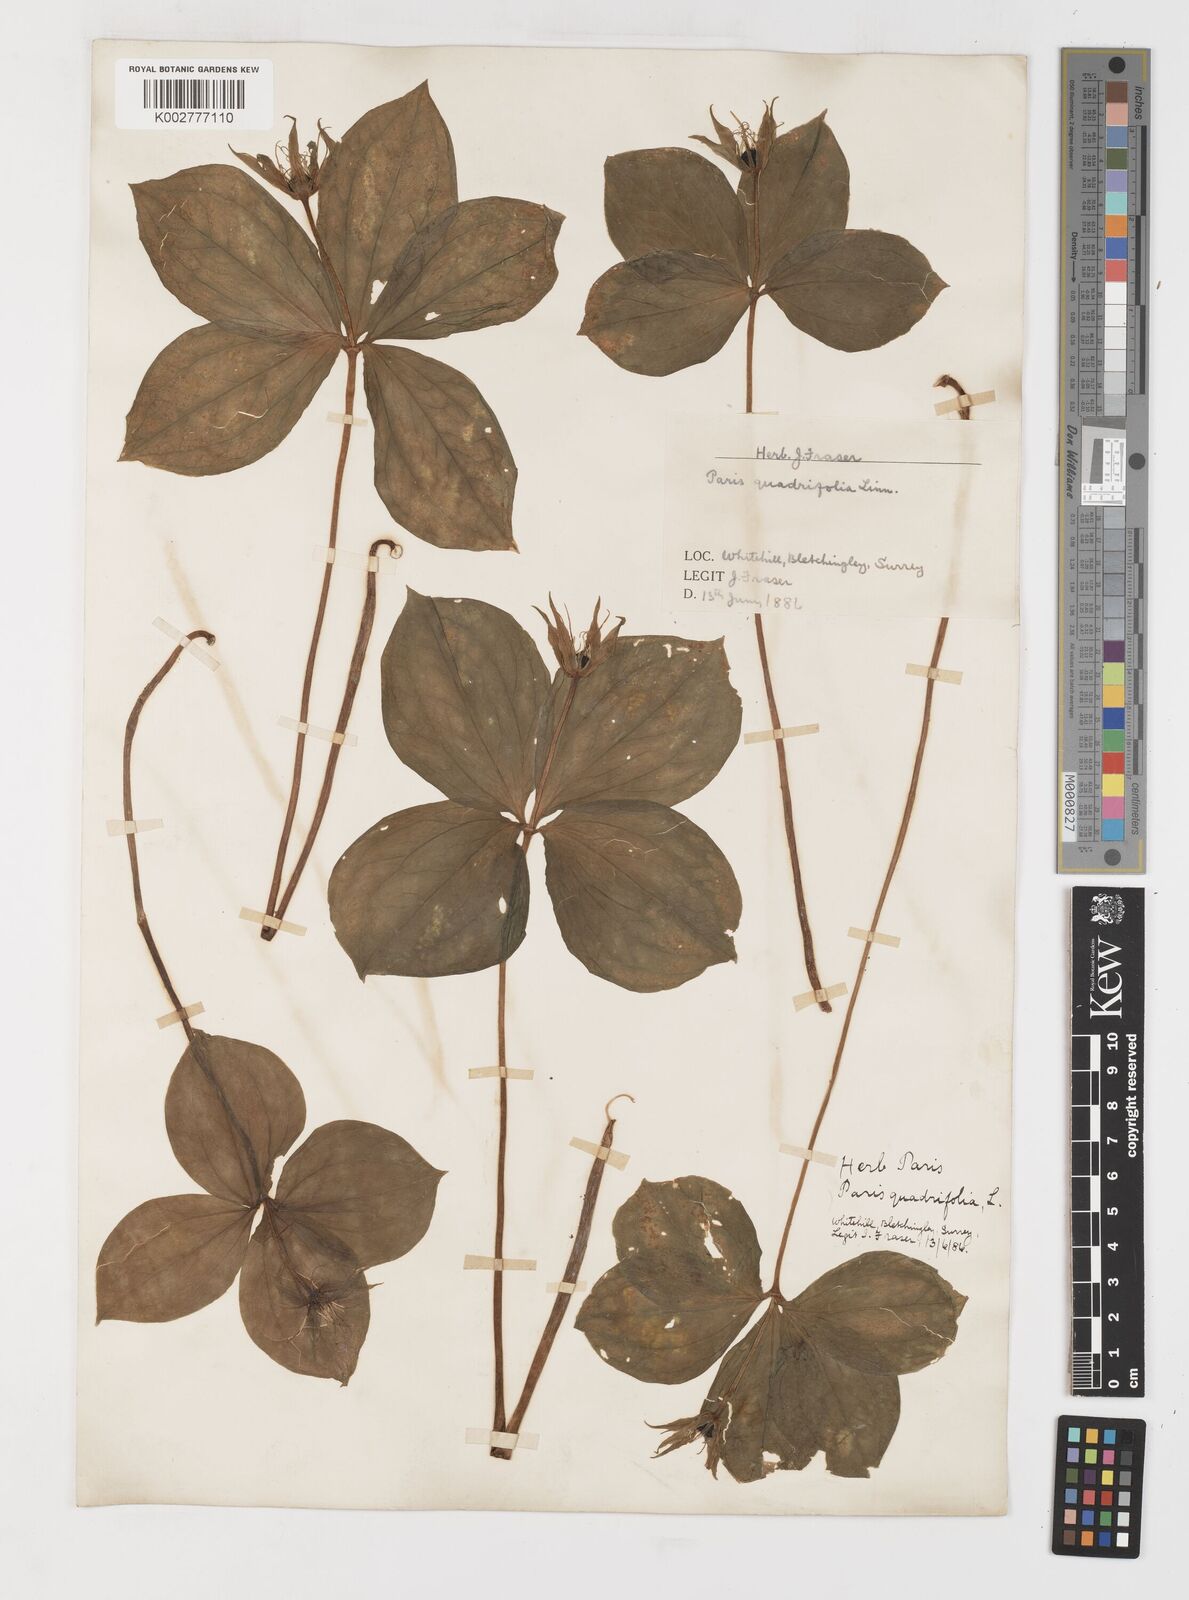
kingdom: Plantae
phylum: Tracheophyta
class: Liliopsida
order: Liliales
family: Melanthiaceae
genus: Paris
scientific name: Paris quadrifolia
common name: Herb-paris
